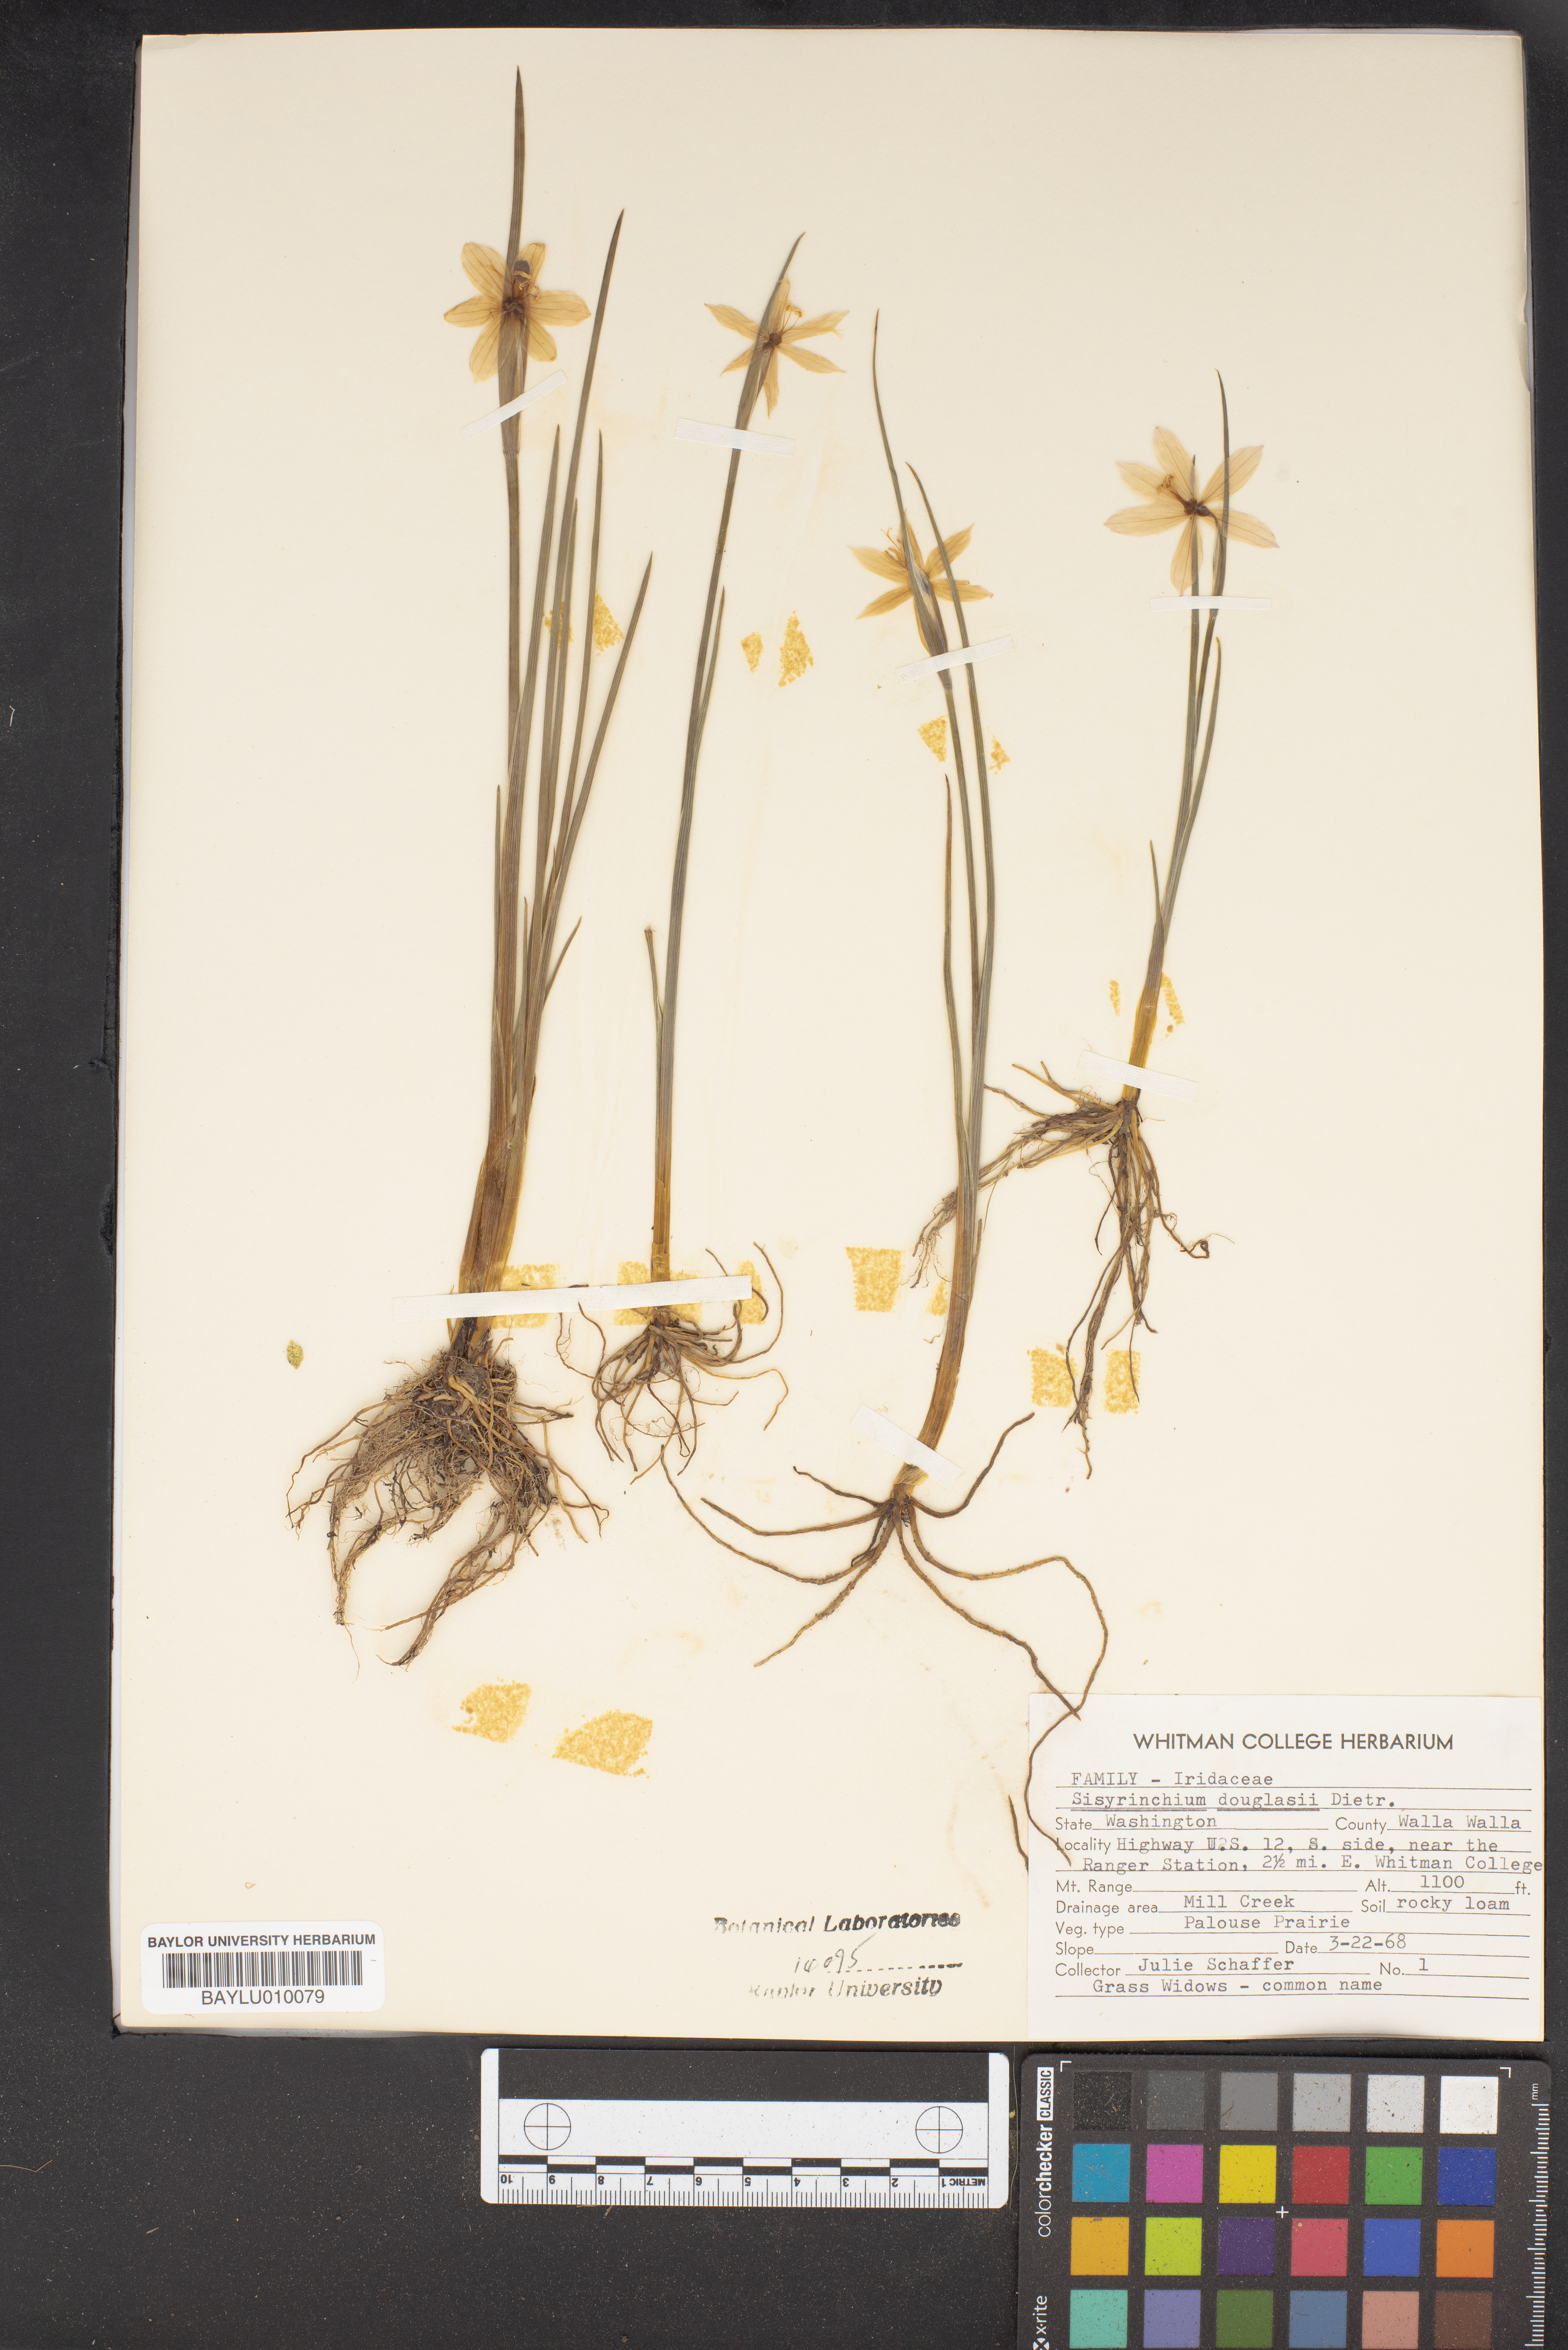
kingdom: Plantae
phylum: Tracheophyta
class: Liliopsida
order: Asparagales
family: Iridaceae
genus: Olsynium
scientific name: Olsynium douglasii
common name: Douglas' grasswidow
